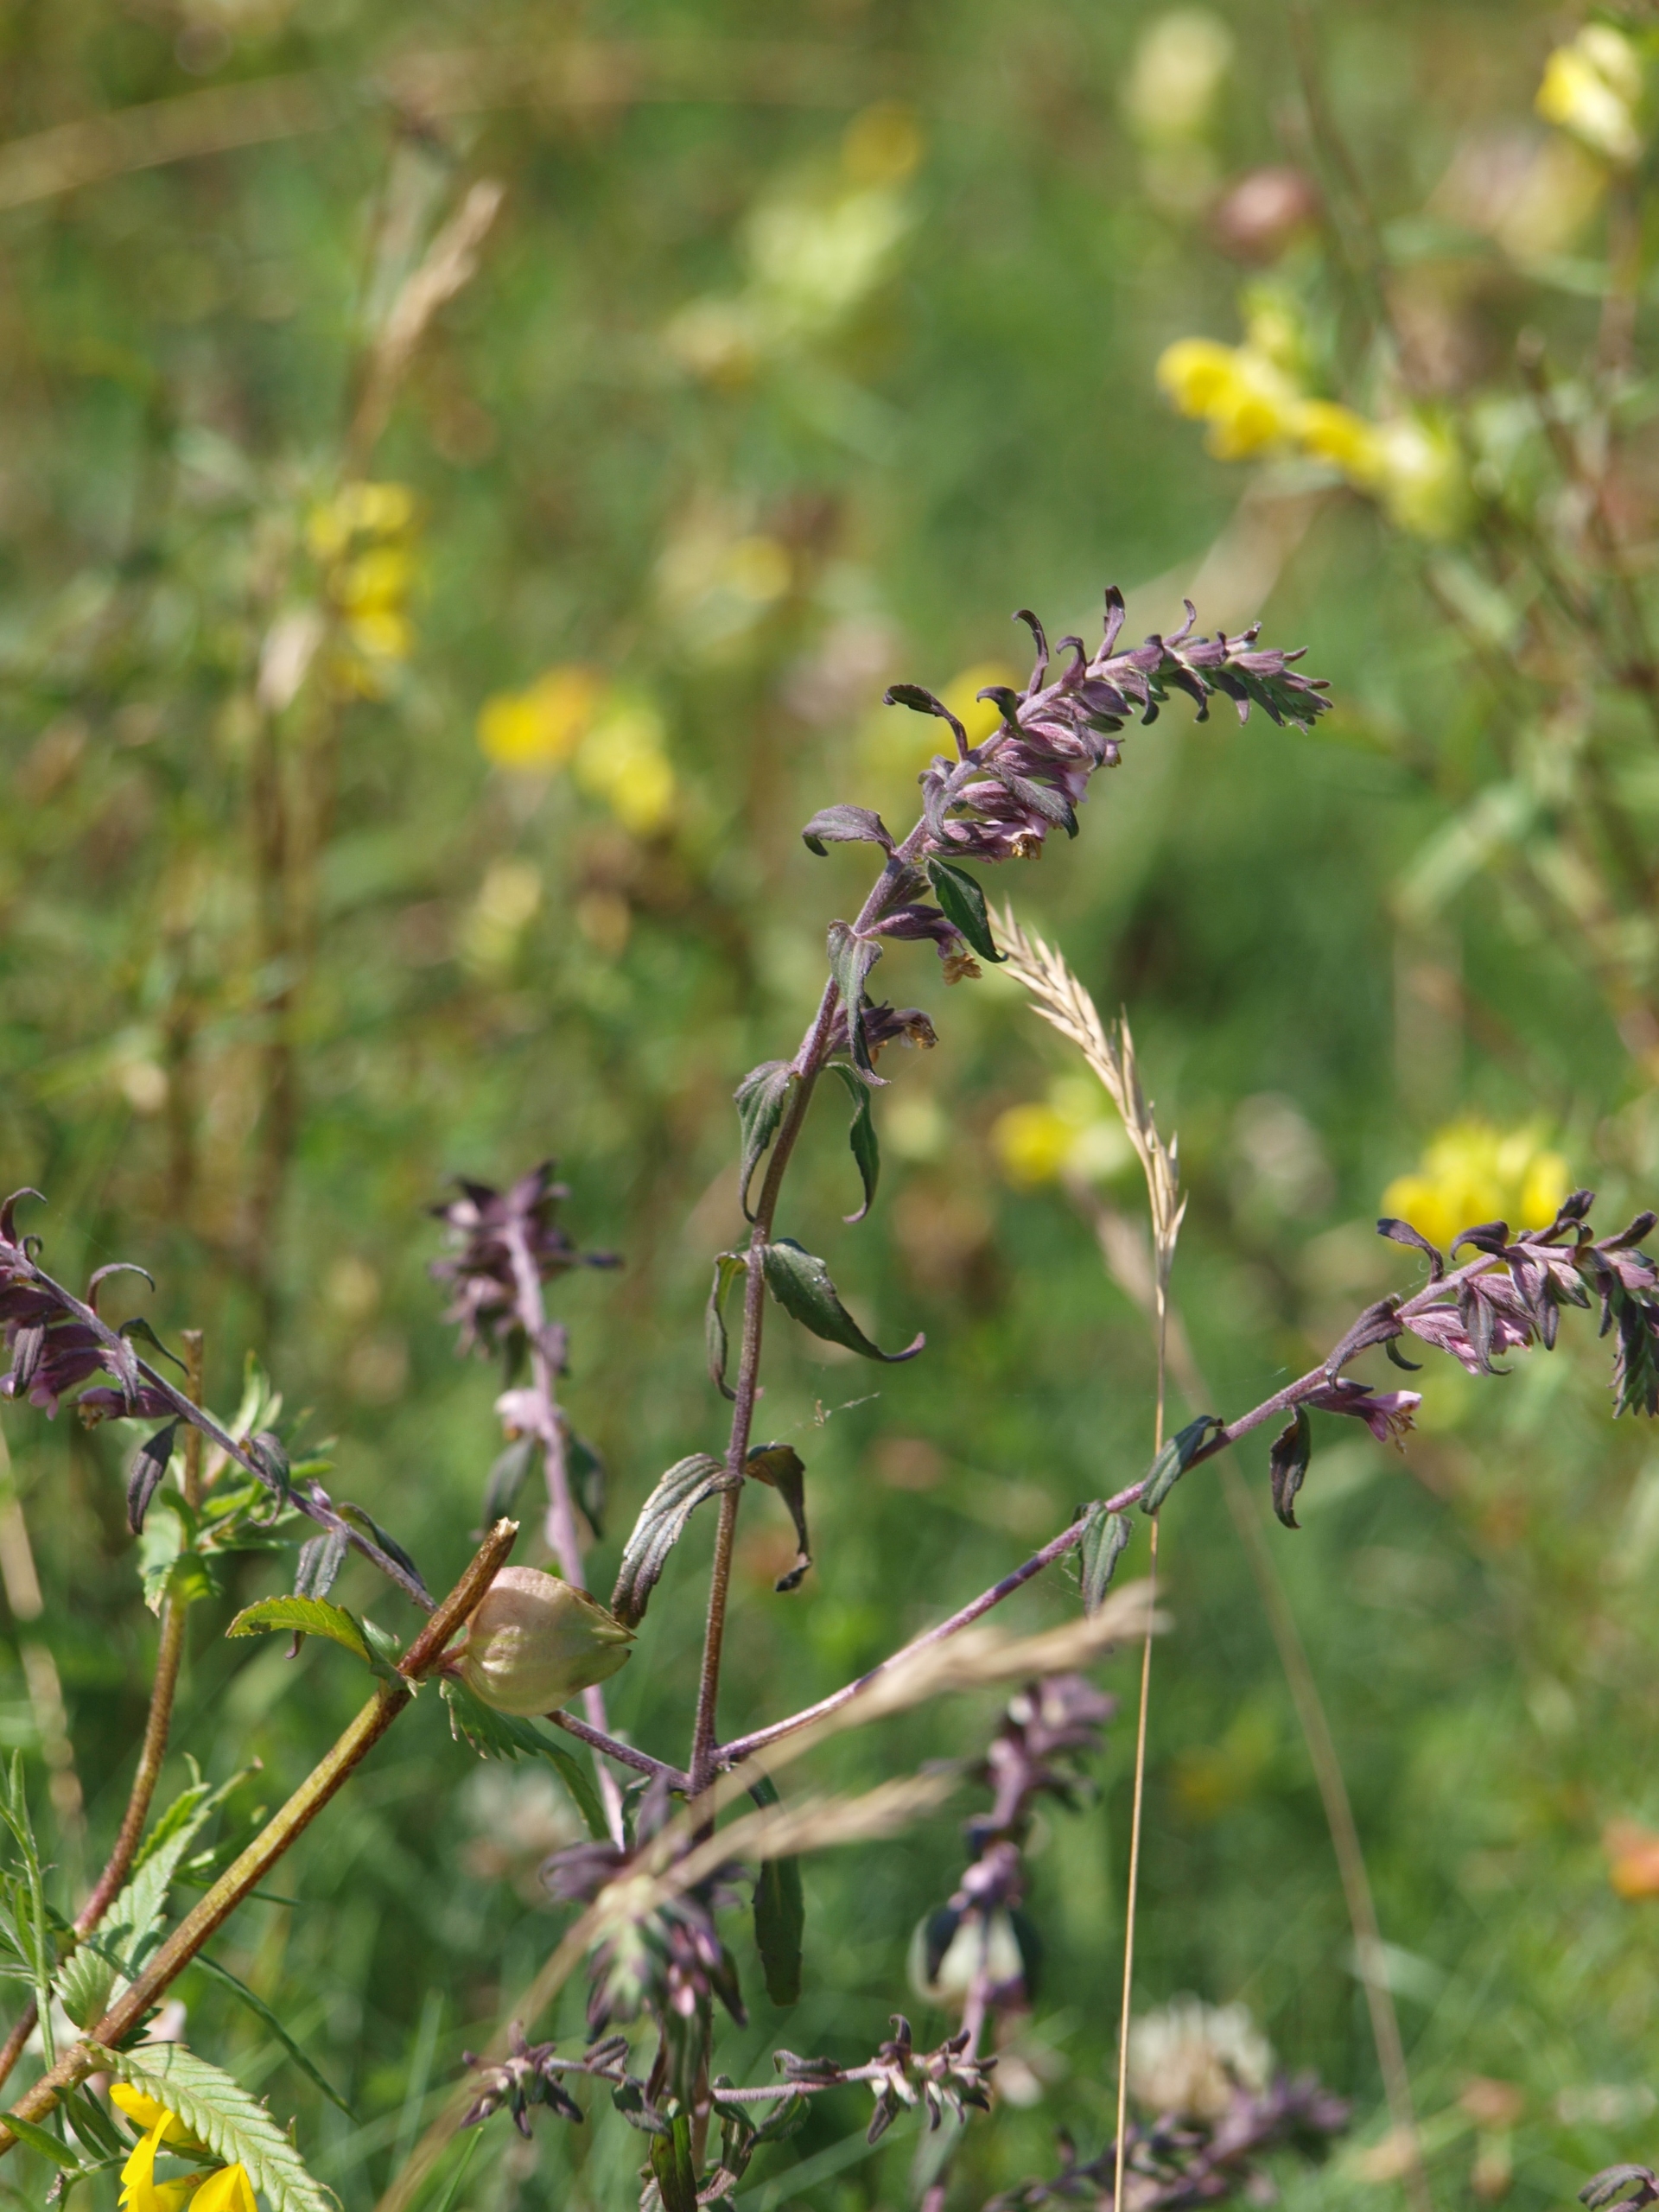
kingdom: Plantae
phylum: Tracheophyta
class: Magnoliopsida
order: Lamiales
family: Orobanchaceae
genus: Odontites
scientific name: Odontites vulgaris
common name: Høst-rødtop
